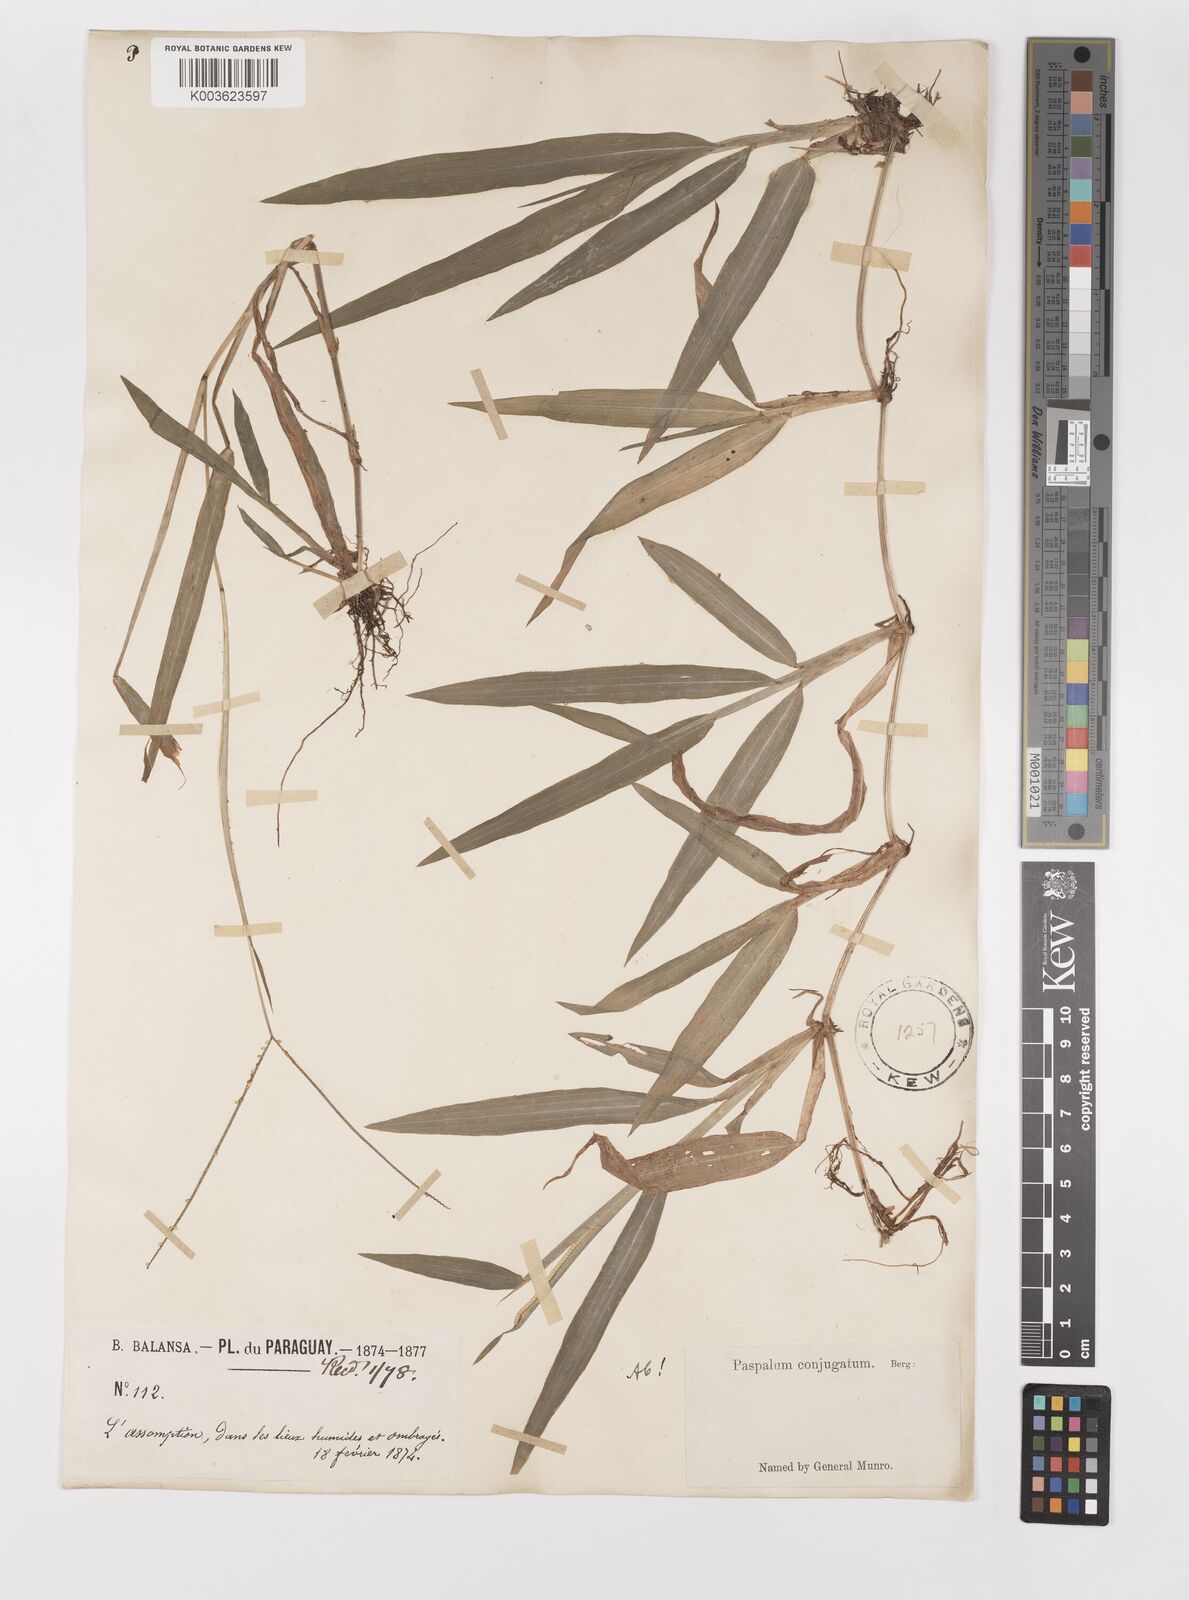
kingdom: Plantae
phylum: Tracheophyta
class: Liliopsida
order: Poales
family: Poaceae
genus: Paspalum
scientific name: Paspalum conjugatum
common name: Hilograss
